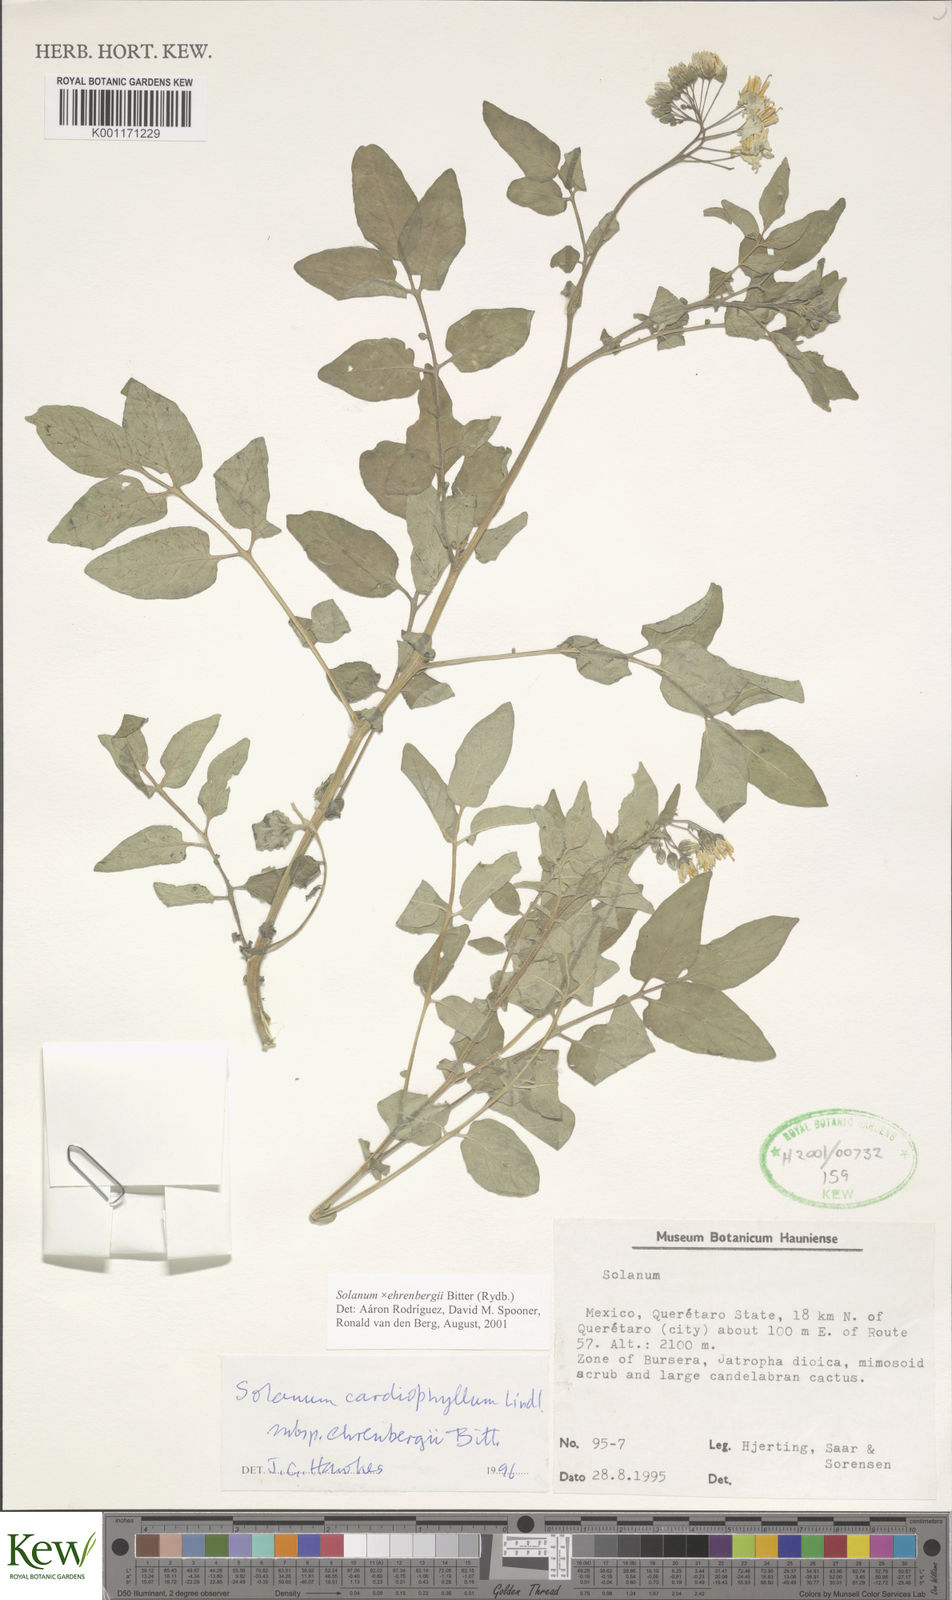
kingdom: Plantae
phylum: Tracheophyta
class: Magnoliopsida
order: Solanales
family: Solanaceae
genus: Solanum
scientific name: Solanum edinense
